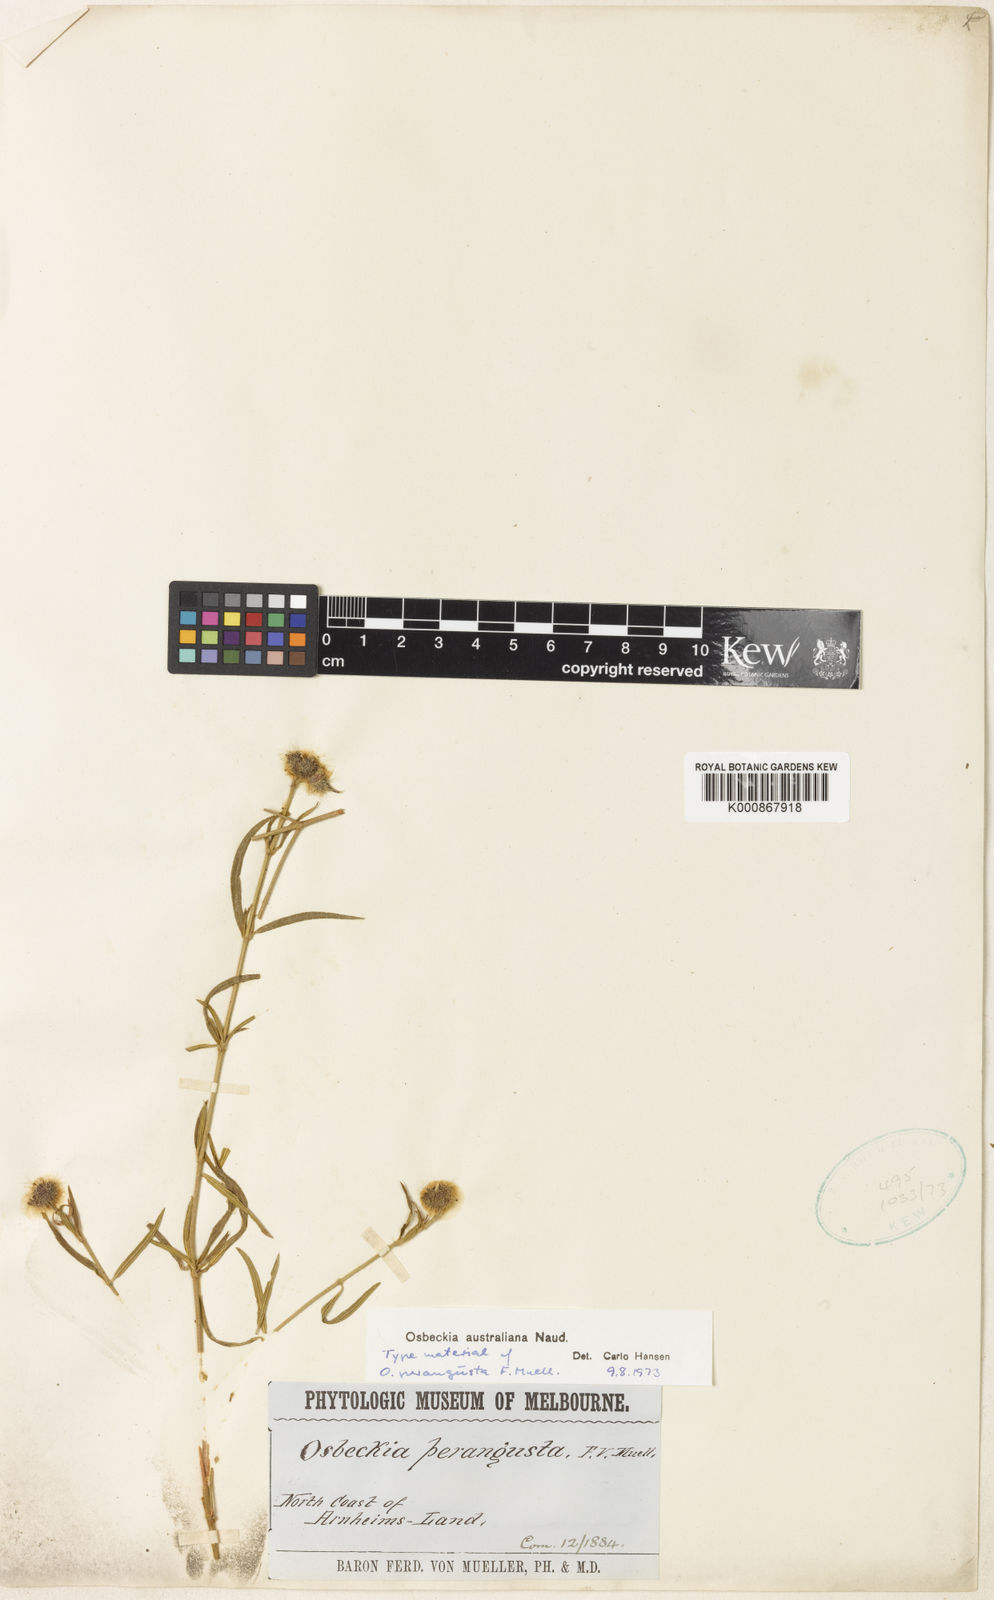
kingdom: Plantae
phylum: Tracheophyta
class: Magnoliopsida
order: Myrtales
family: Melastomataceae
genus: Osbeckia
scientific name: Osbeckia australiana
